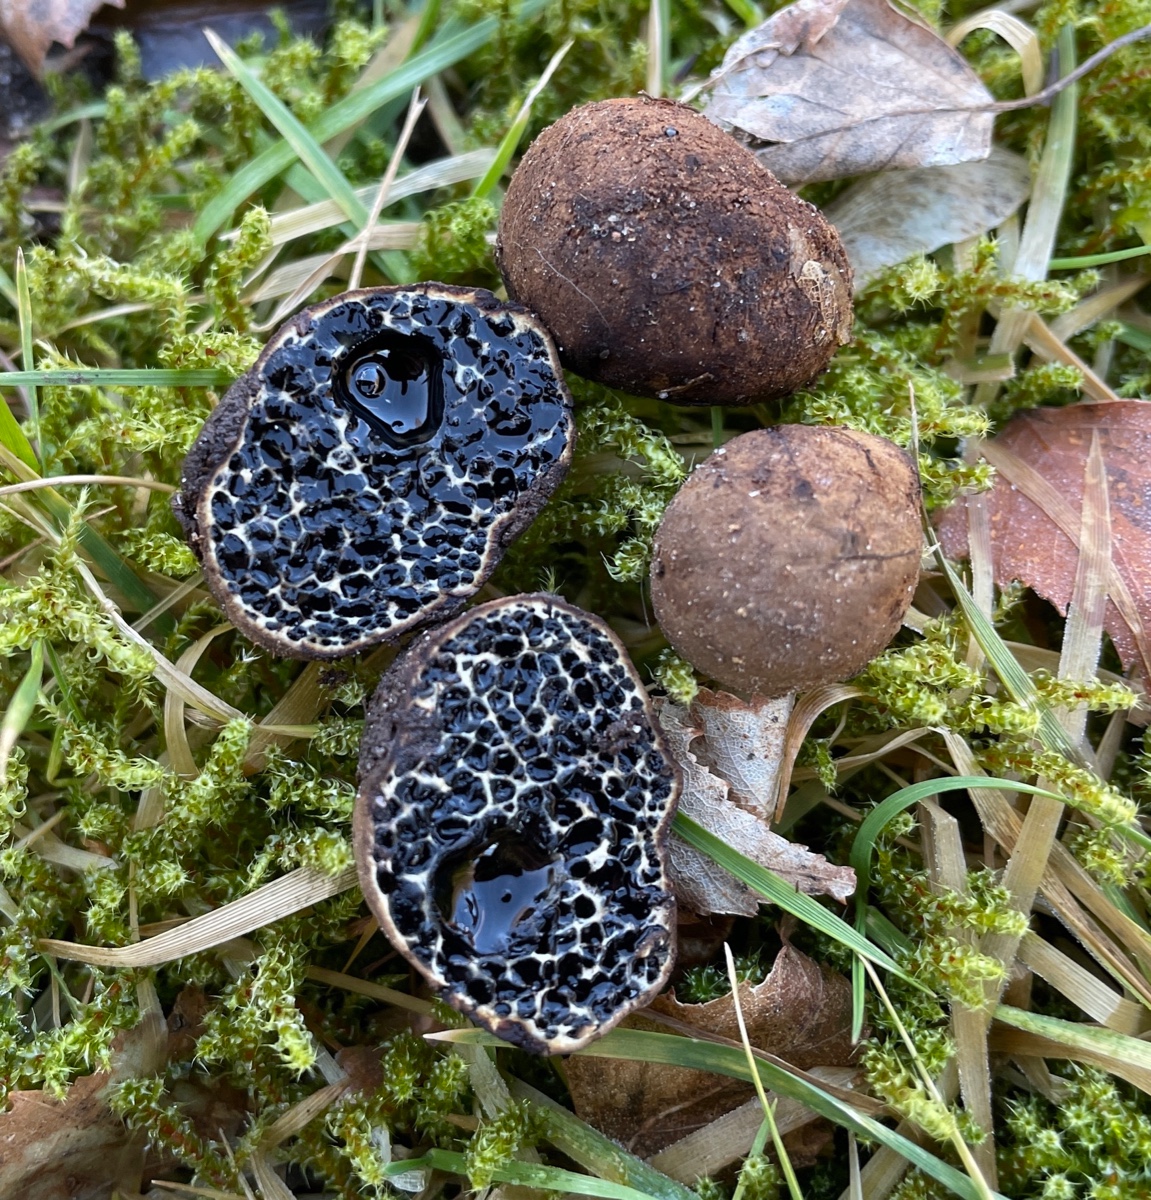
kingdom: Fungi
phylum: Basidiomycota
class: Agaricomycetes
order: Boletales
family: Paxillaceae
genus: Melanogaster
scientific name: Melanogaster ambiguus
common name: lille slimtrøffel
